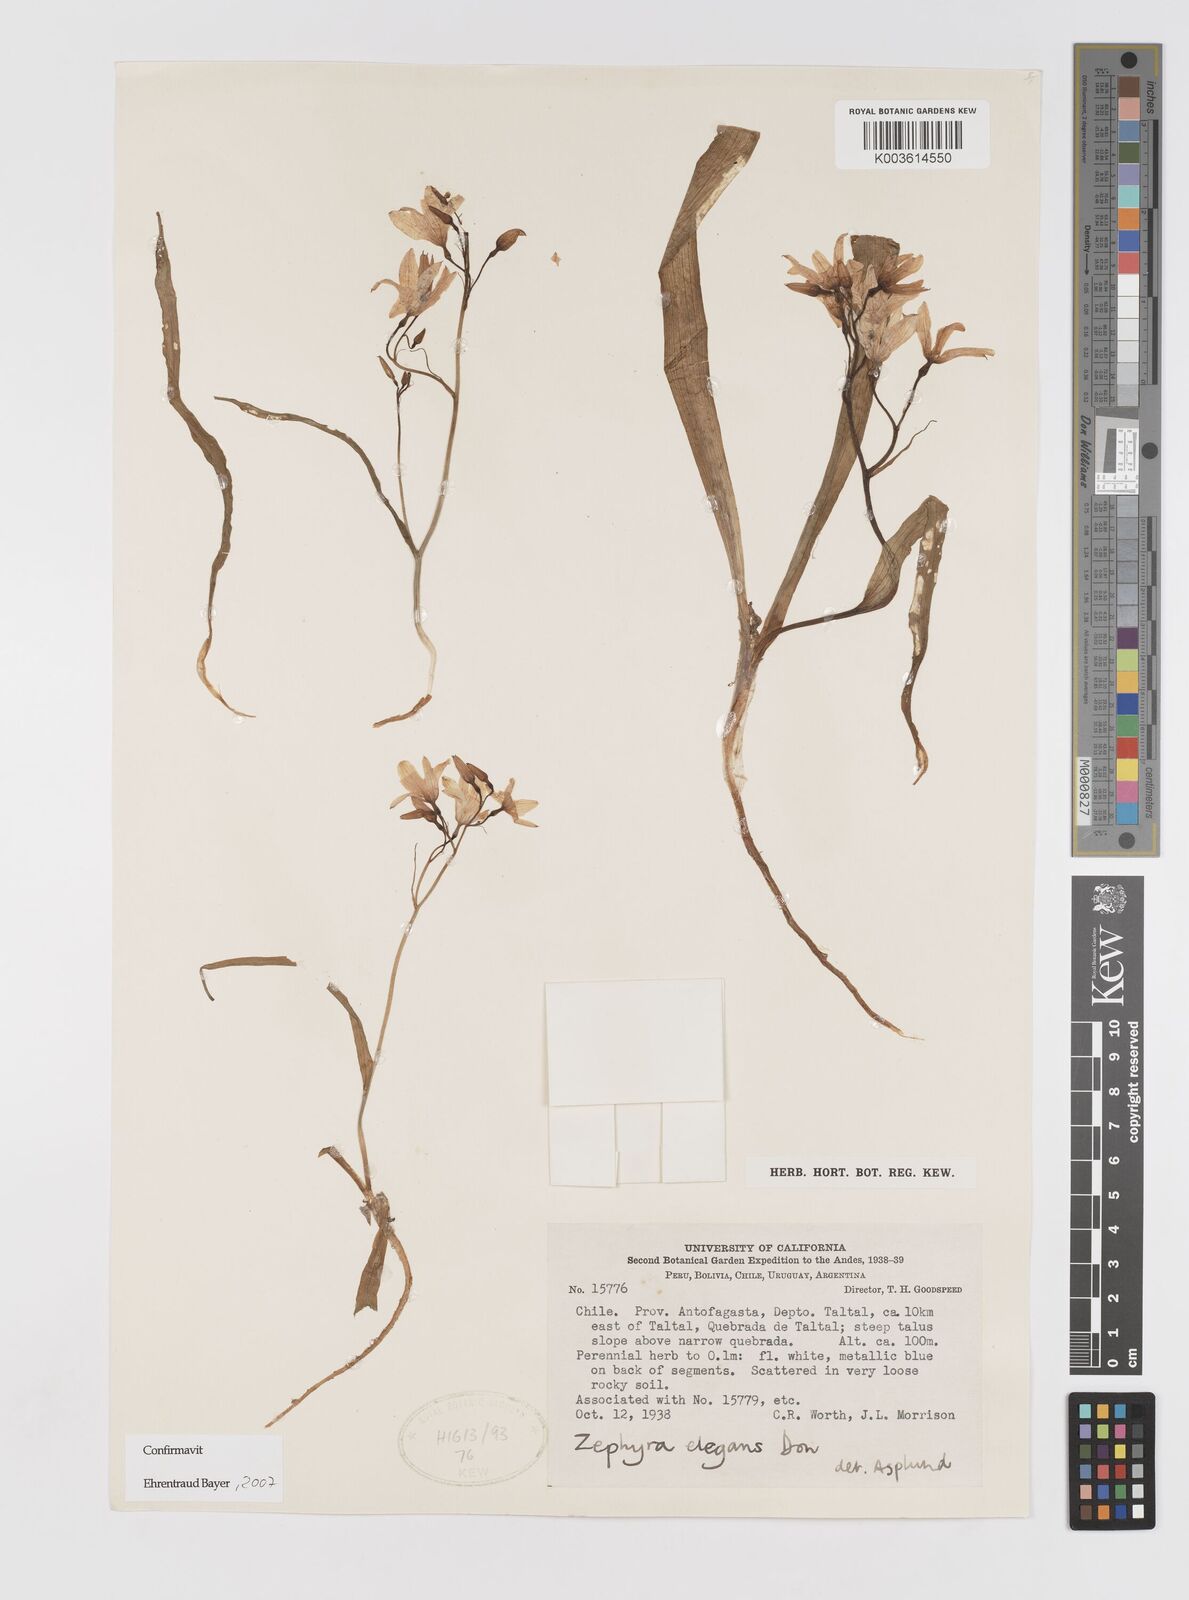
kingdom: Plantae
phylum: Tracheophyta
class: Liliopsida
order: Asparagales
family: Tecophilaeaceae
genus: Zephyra
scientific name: Zephyra elegans
